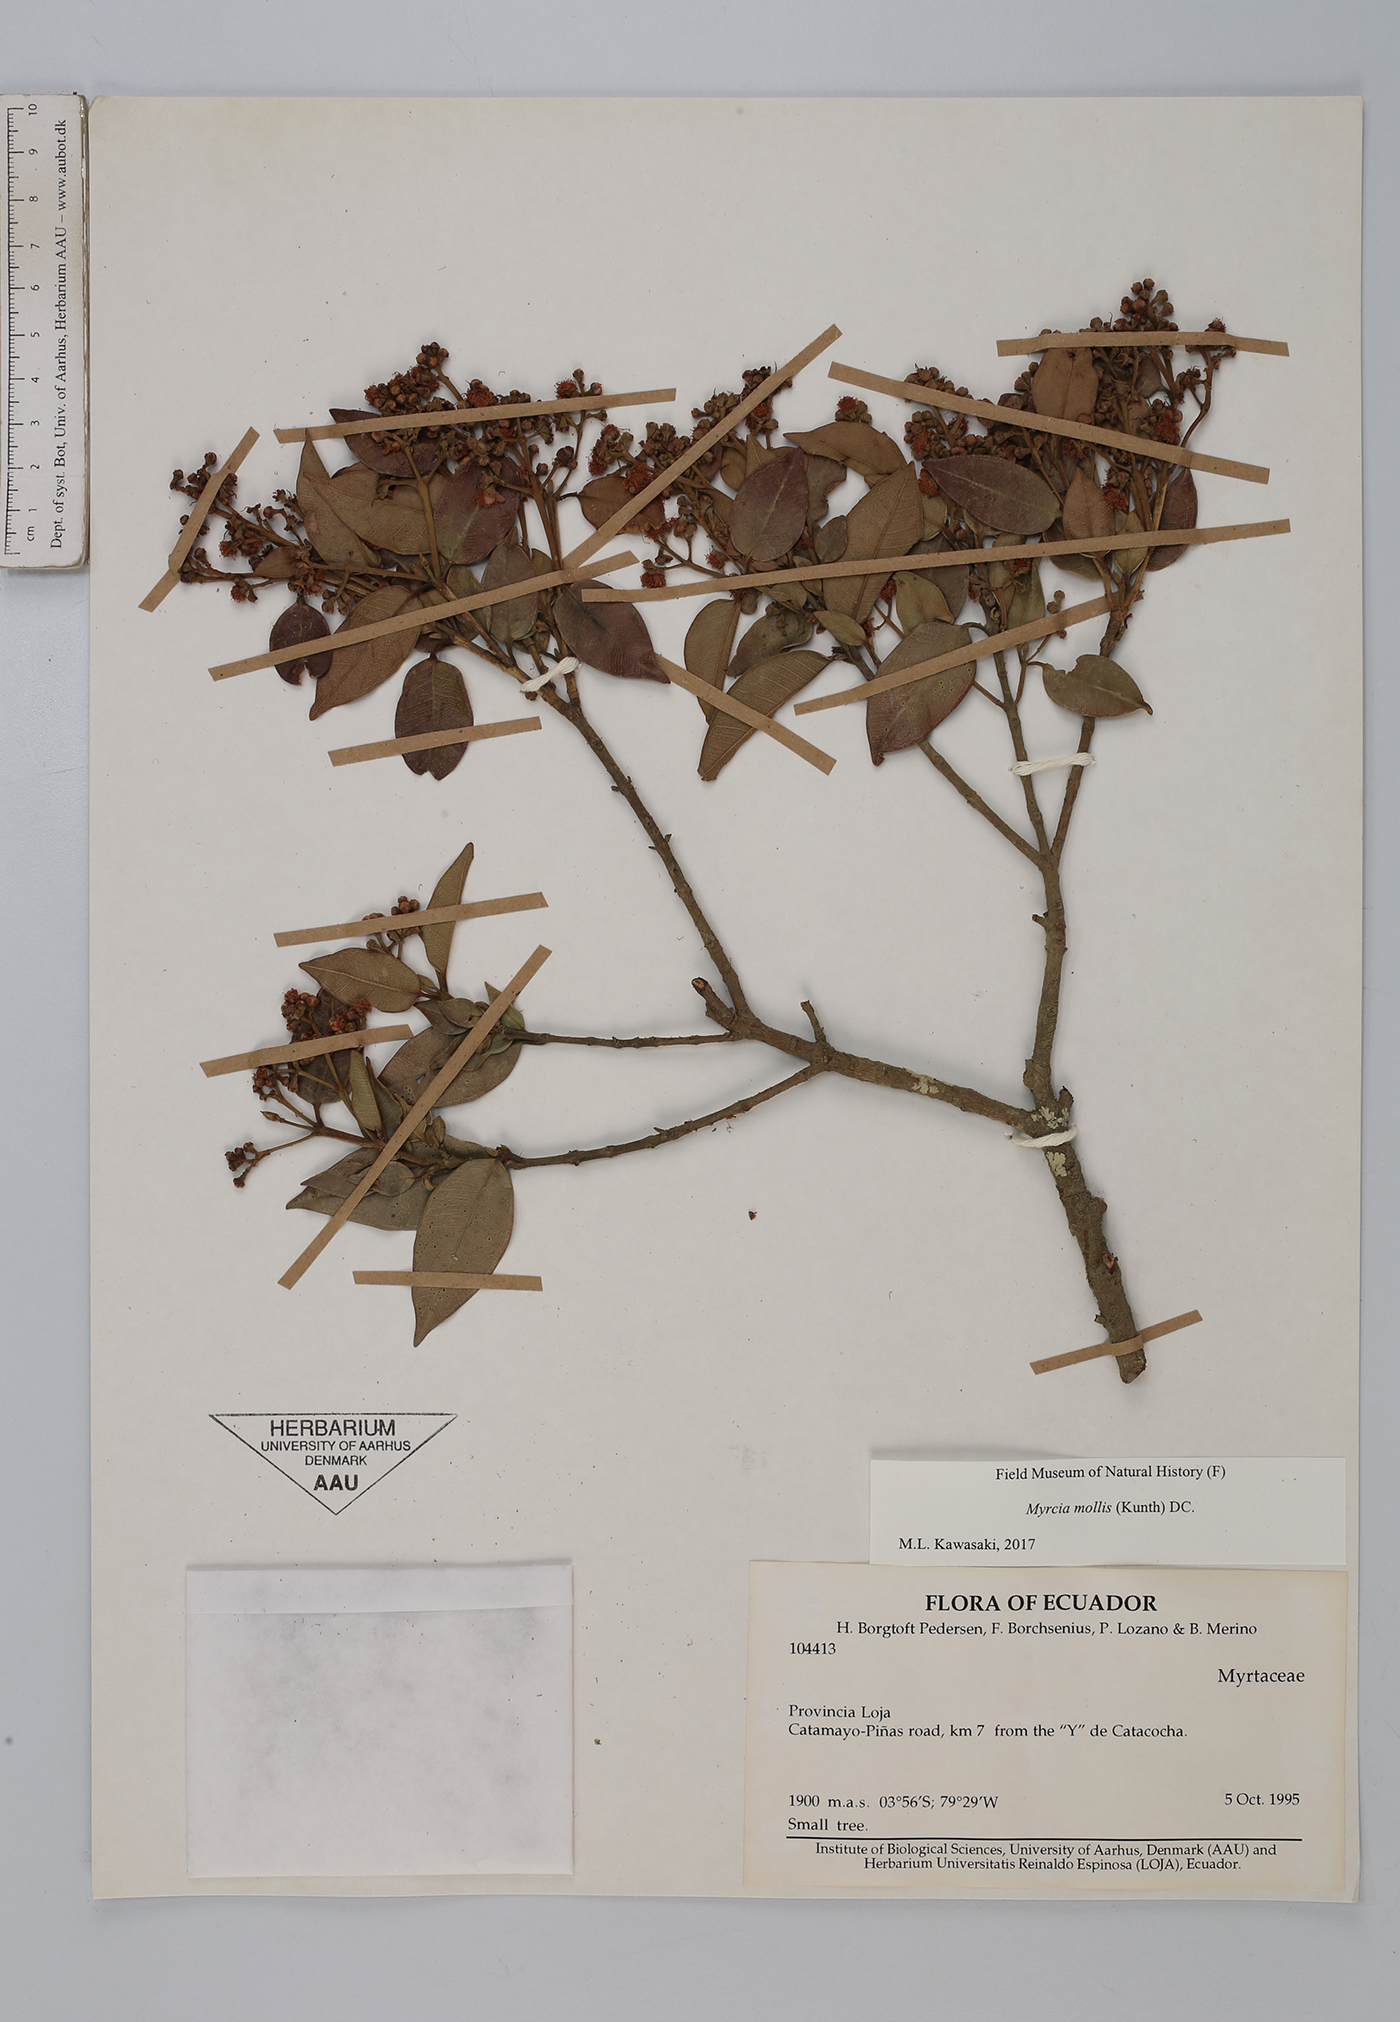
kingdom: Plantae
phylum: Tracheophyta
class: Magnoliopsida
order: Myrtales
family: Myrtaceae
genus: Myrcia
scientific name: Myrcia mollis
